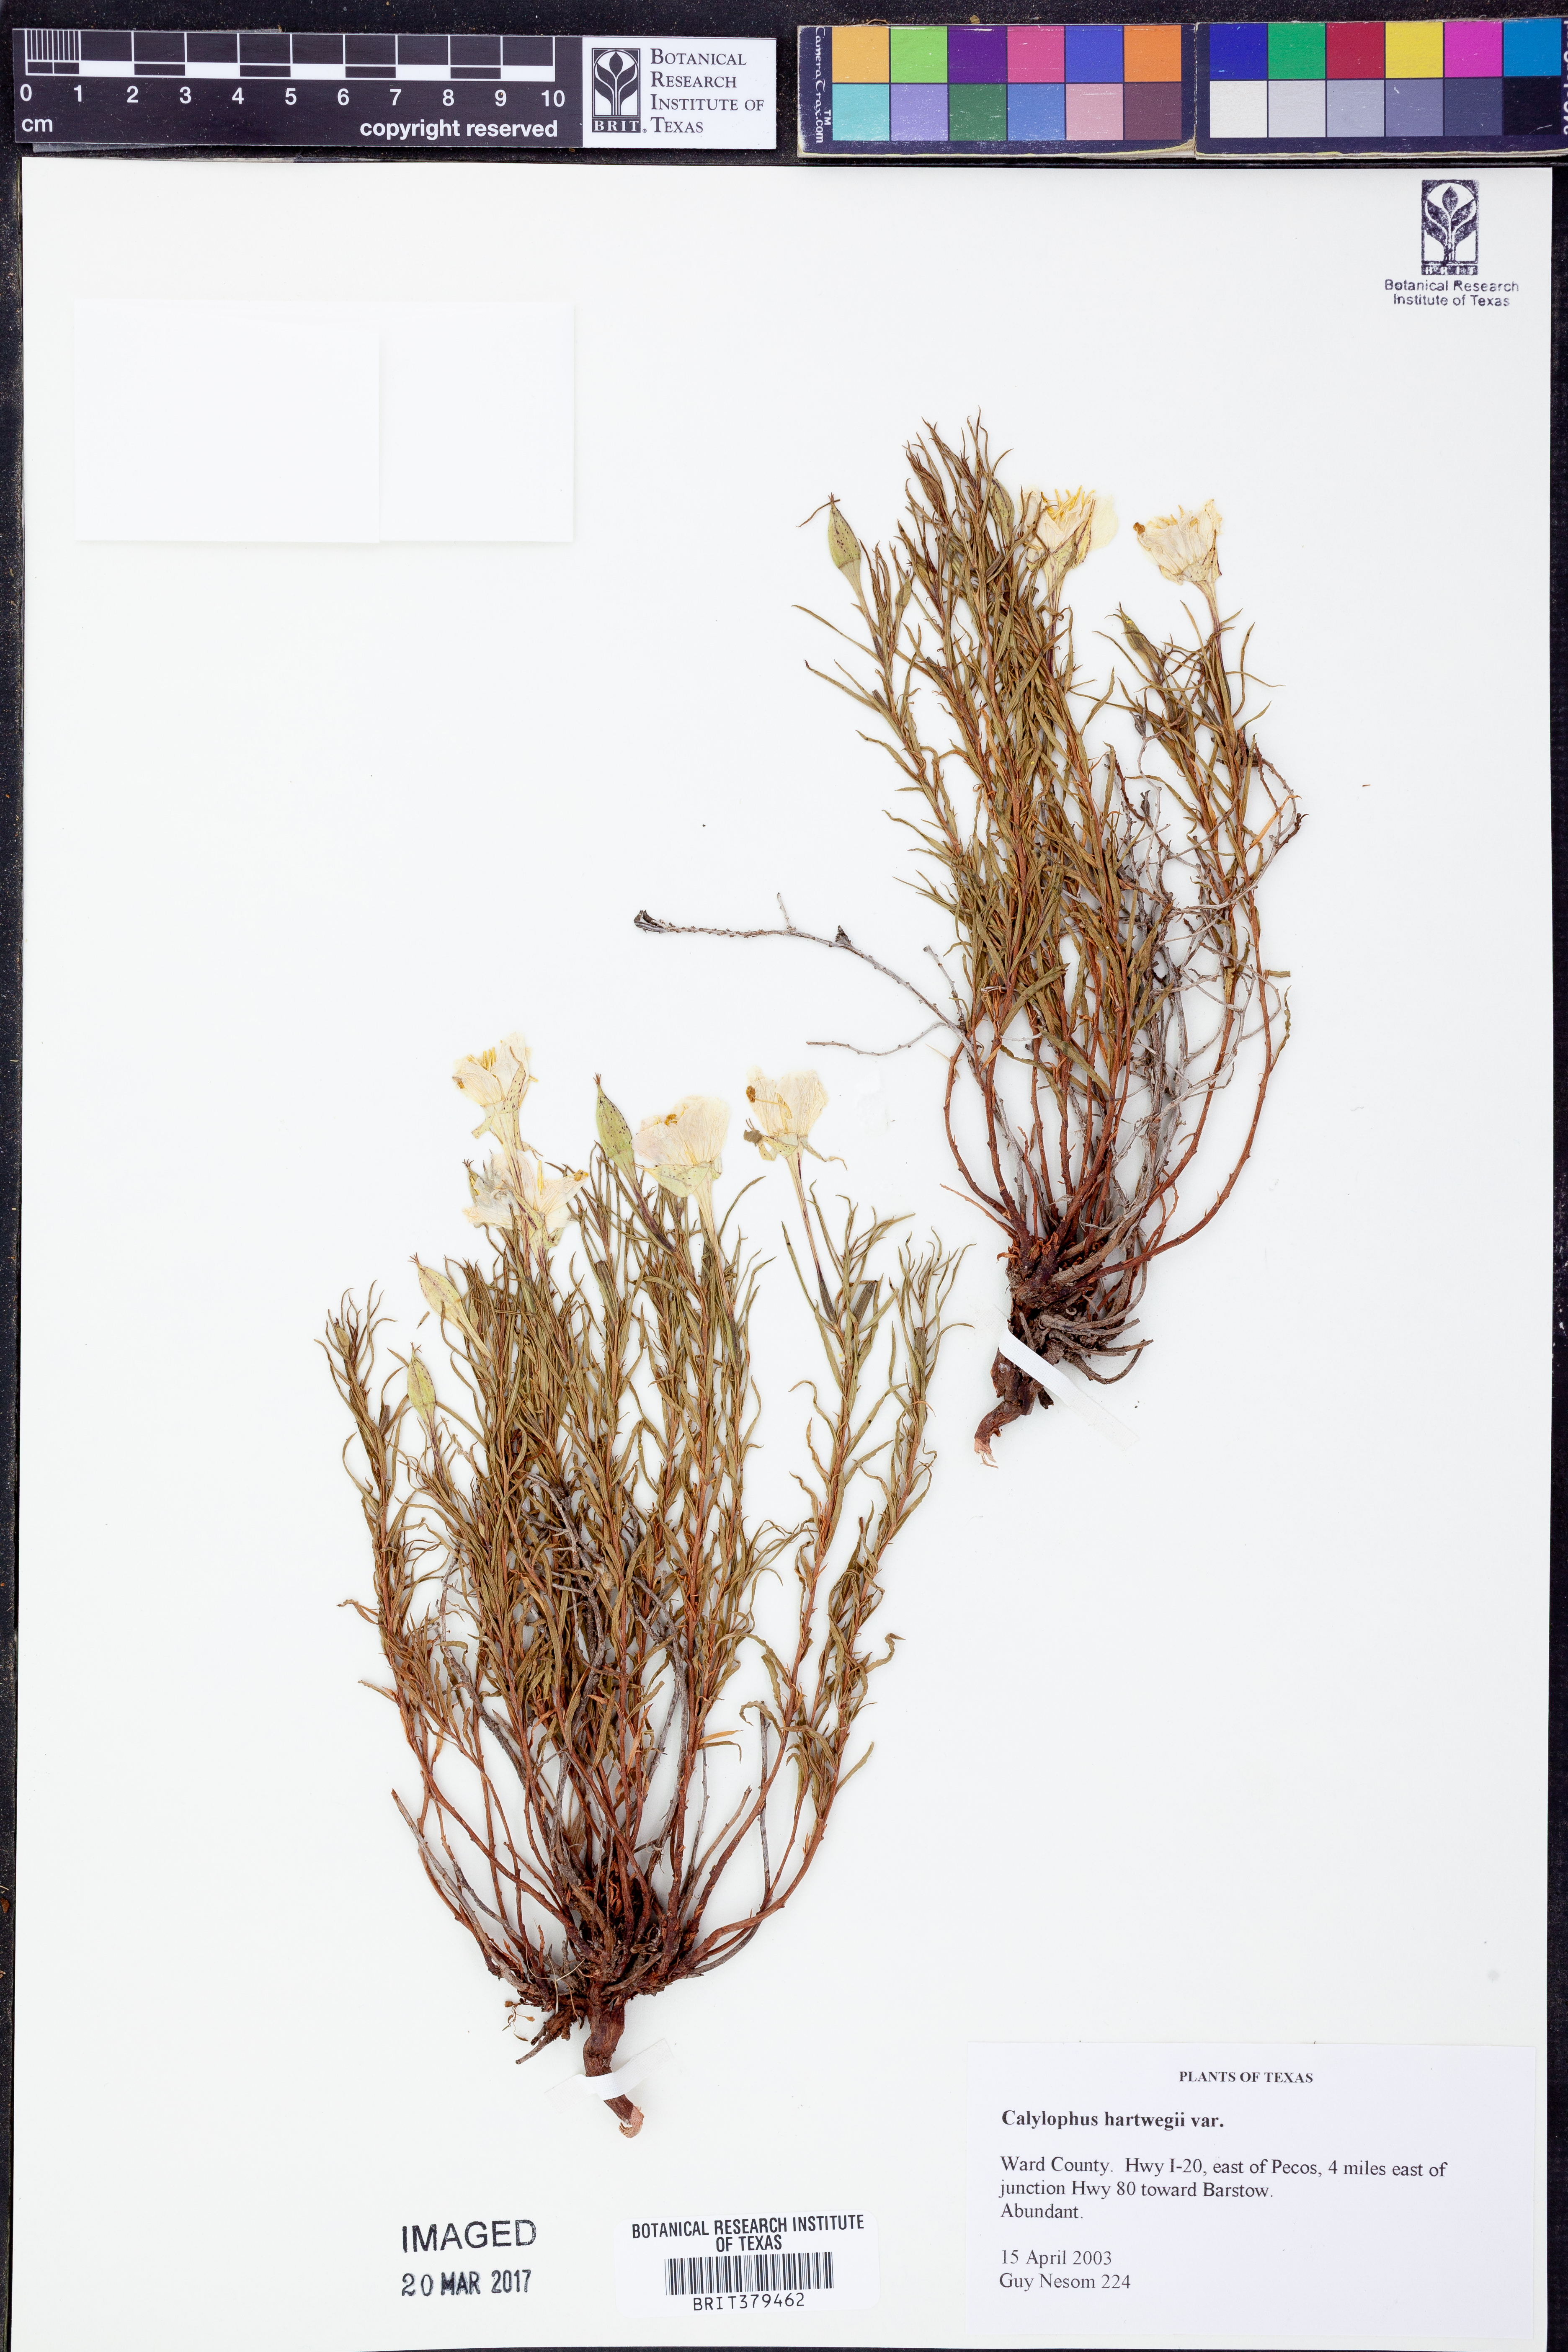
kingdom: Plantae
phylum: Tracheophyta
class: Magnoliopsida
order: Myrtales
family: Onagraceae
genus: Oenothera
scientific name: Oenothera hartwegii
